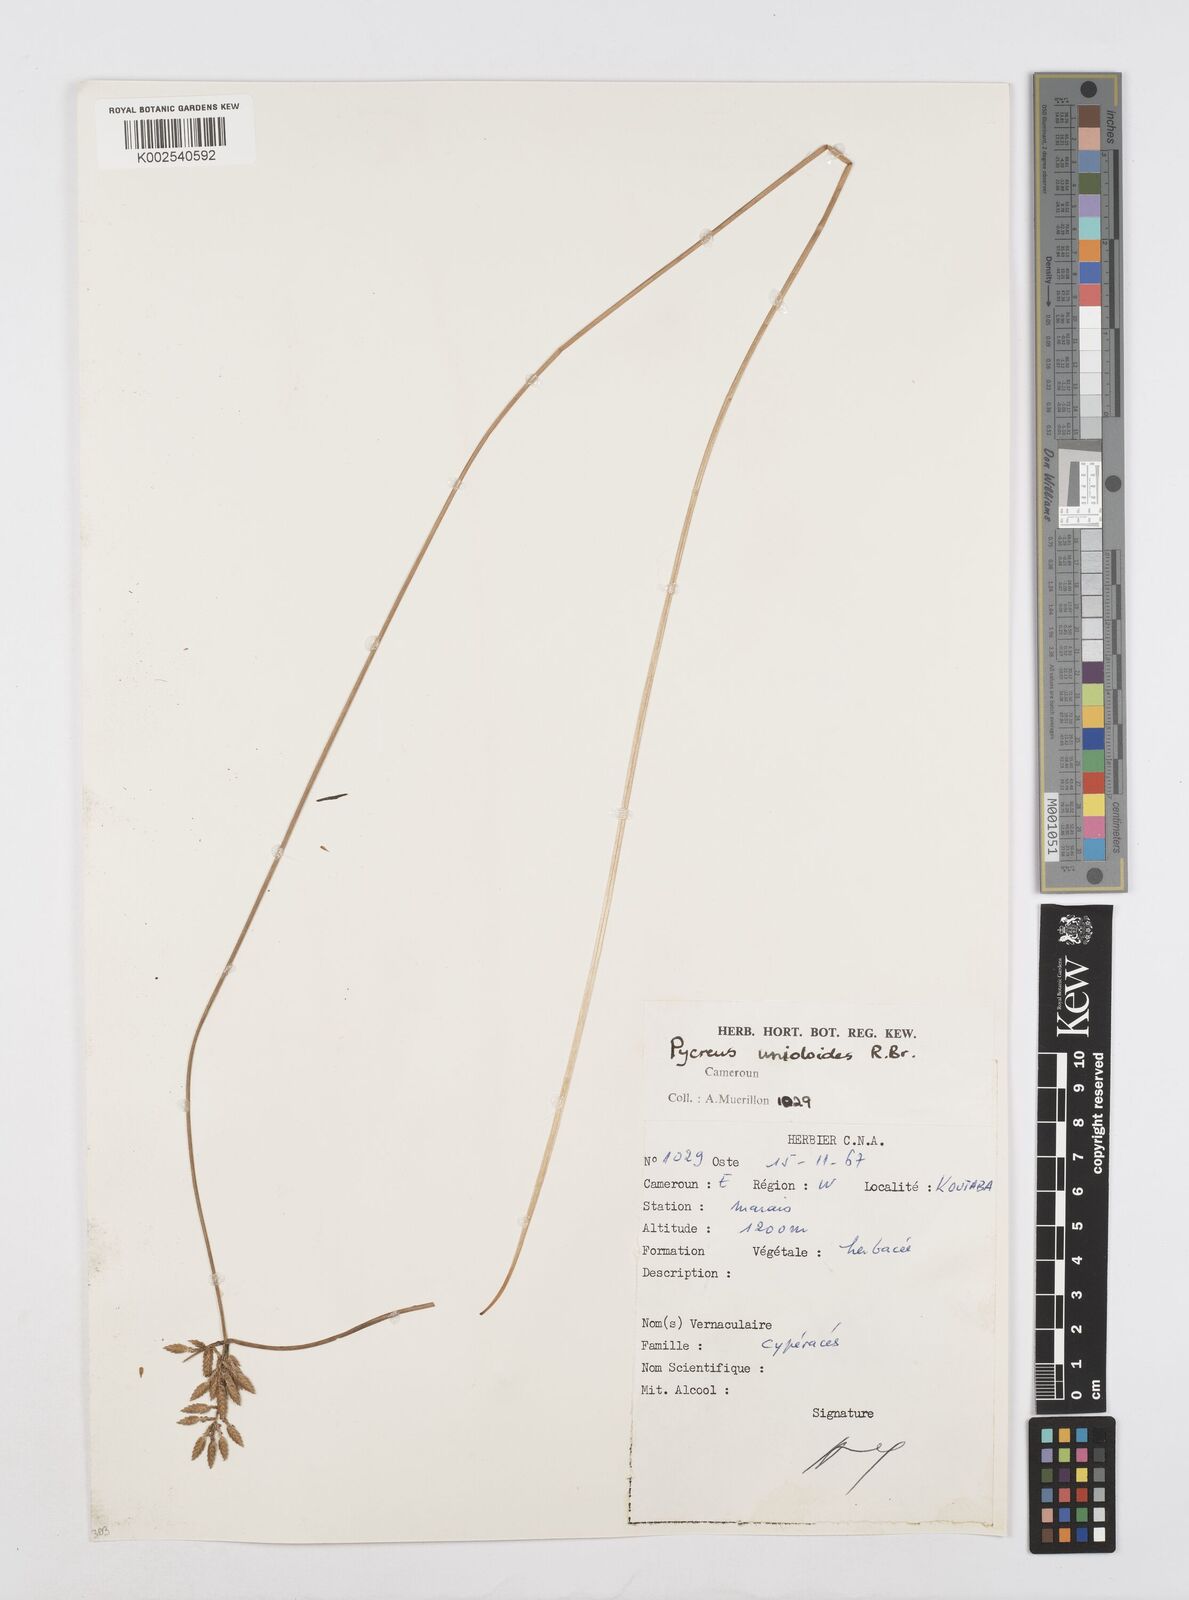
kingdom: Plantae
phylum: Tracheophyta
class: Liliopsida
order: Poales
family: Cyperaceae
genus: Cyperus
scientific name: Cyperus unioloides
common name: Uniola flatsedge
